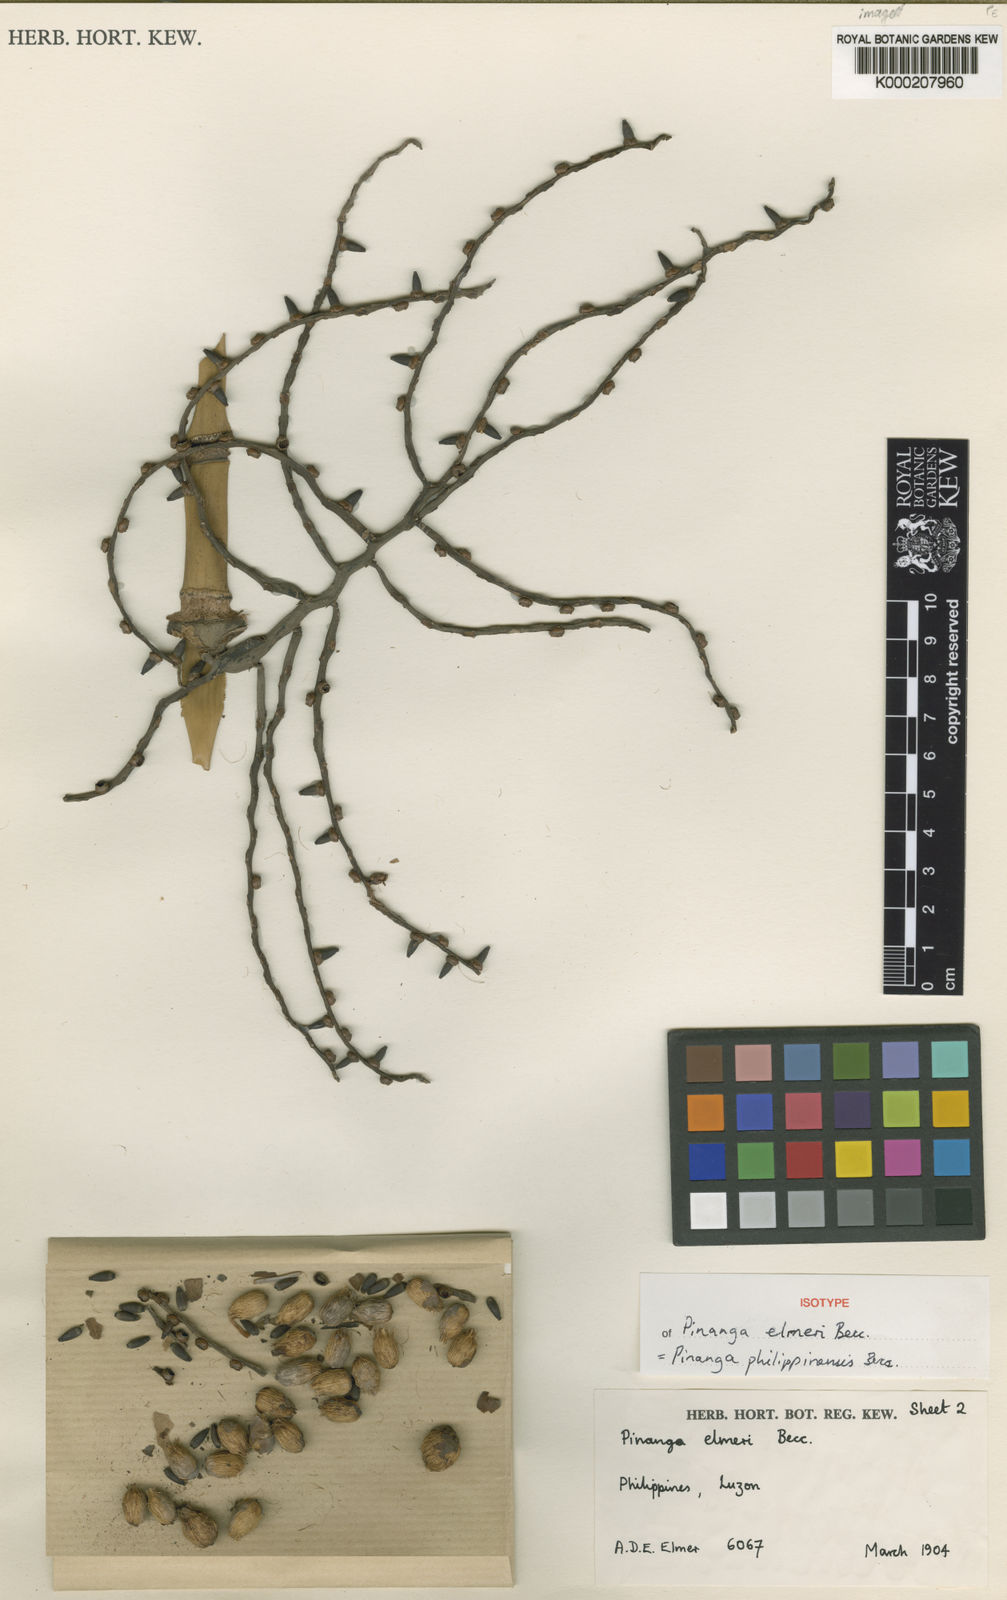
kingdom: Plantae
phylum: Tracheophyta
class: Liliopsida
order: Arecales
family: Arecaceae
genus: Pinanga
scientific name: Pinanga philippinensis
